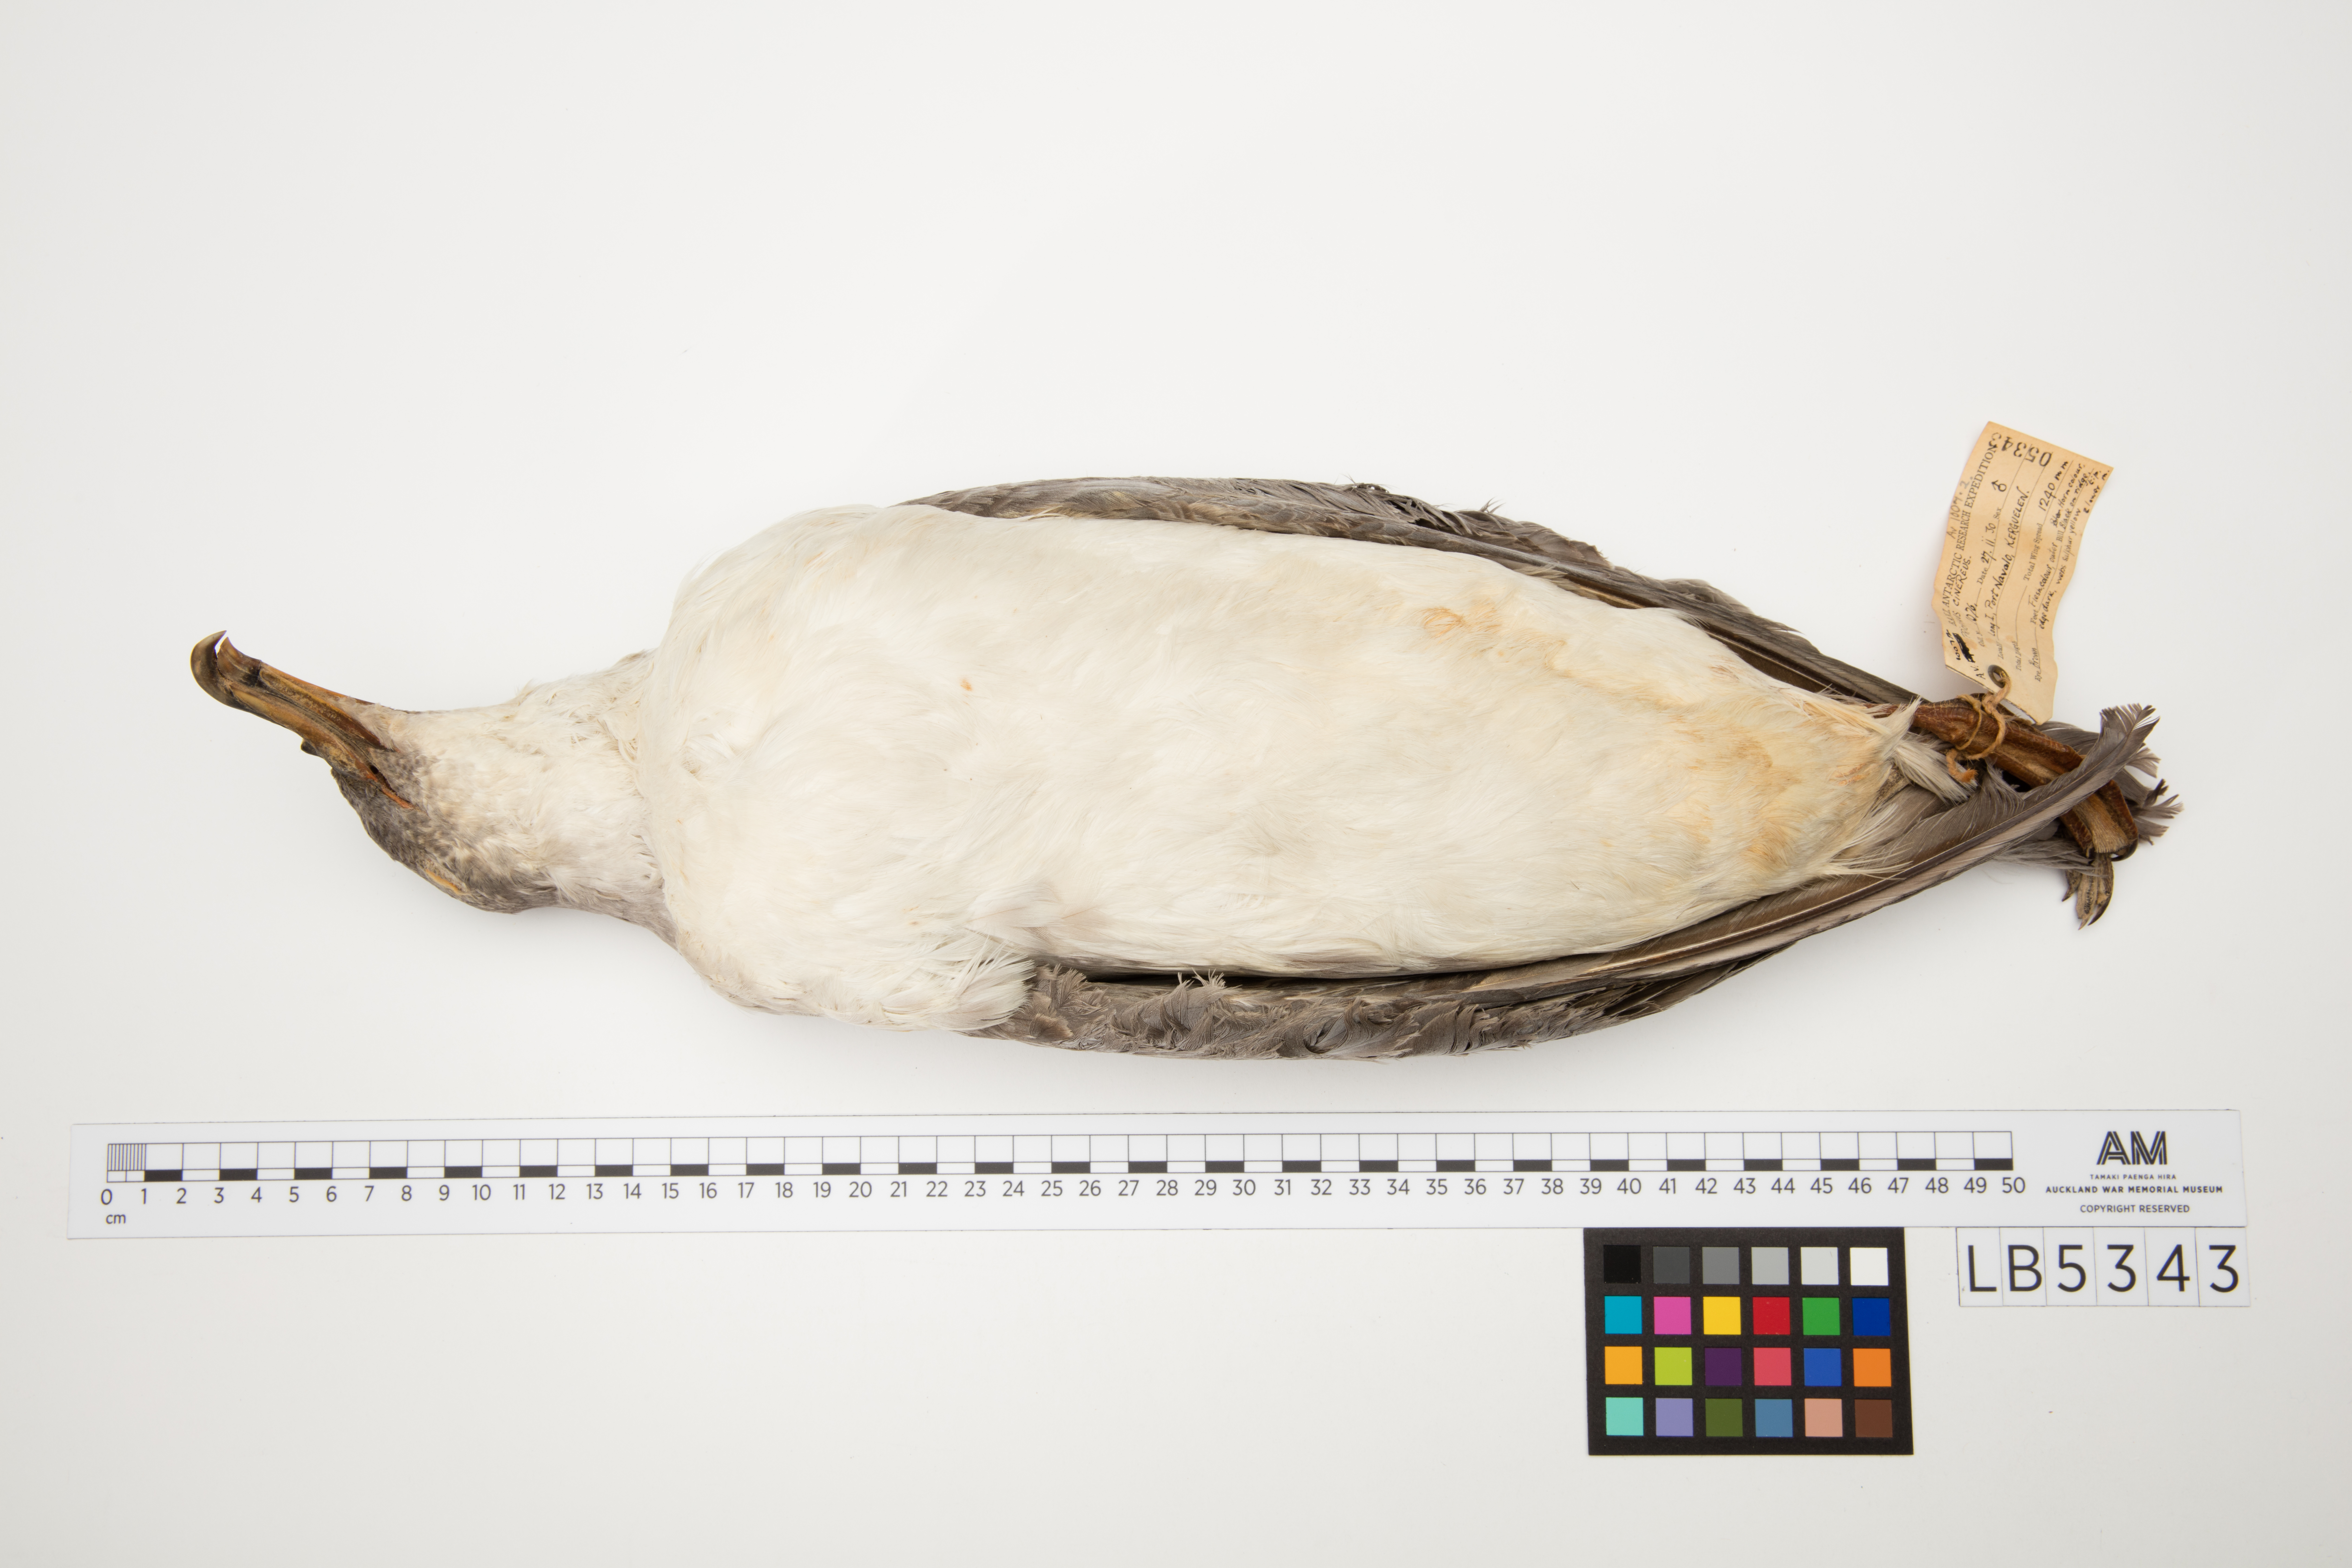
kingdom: Animalia
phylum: Chordata
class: Aves
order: Procellariiformes
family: Procellariidae
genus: Procellaria
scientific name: Procellaria cinerea
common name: Grey petrel
